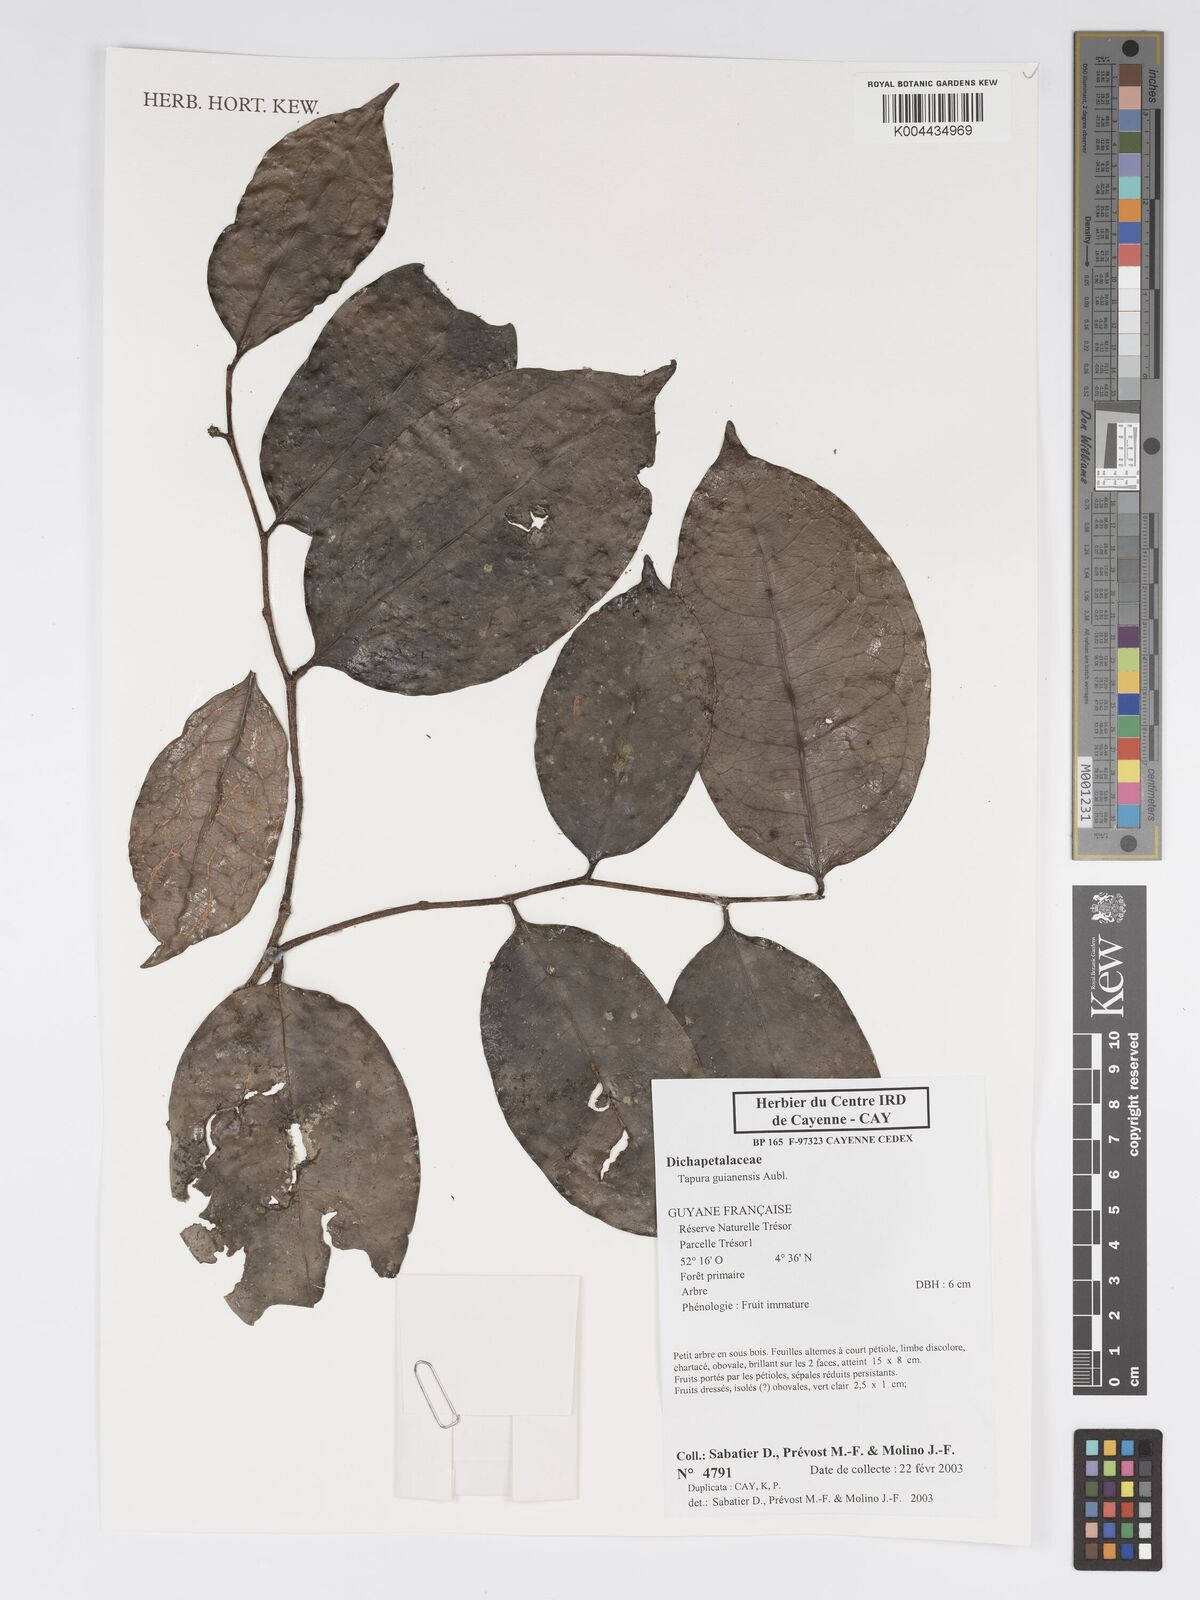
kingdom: Plantae
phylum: Tracheophyta
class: Magnoliopsida
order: Malpighiales
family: Dichapetalaceae
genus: Tapura
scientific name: Tapura guianensis
